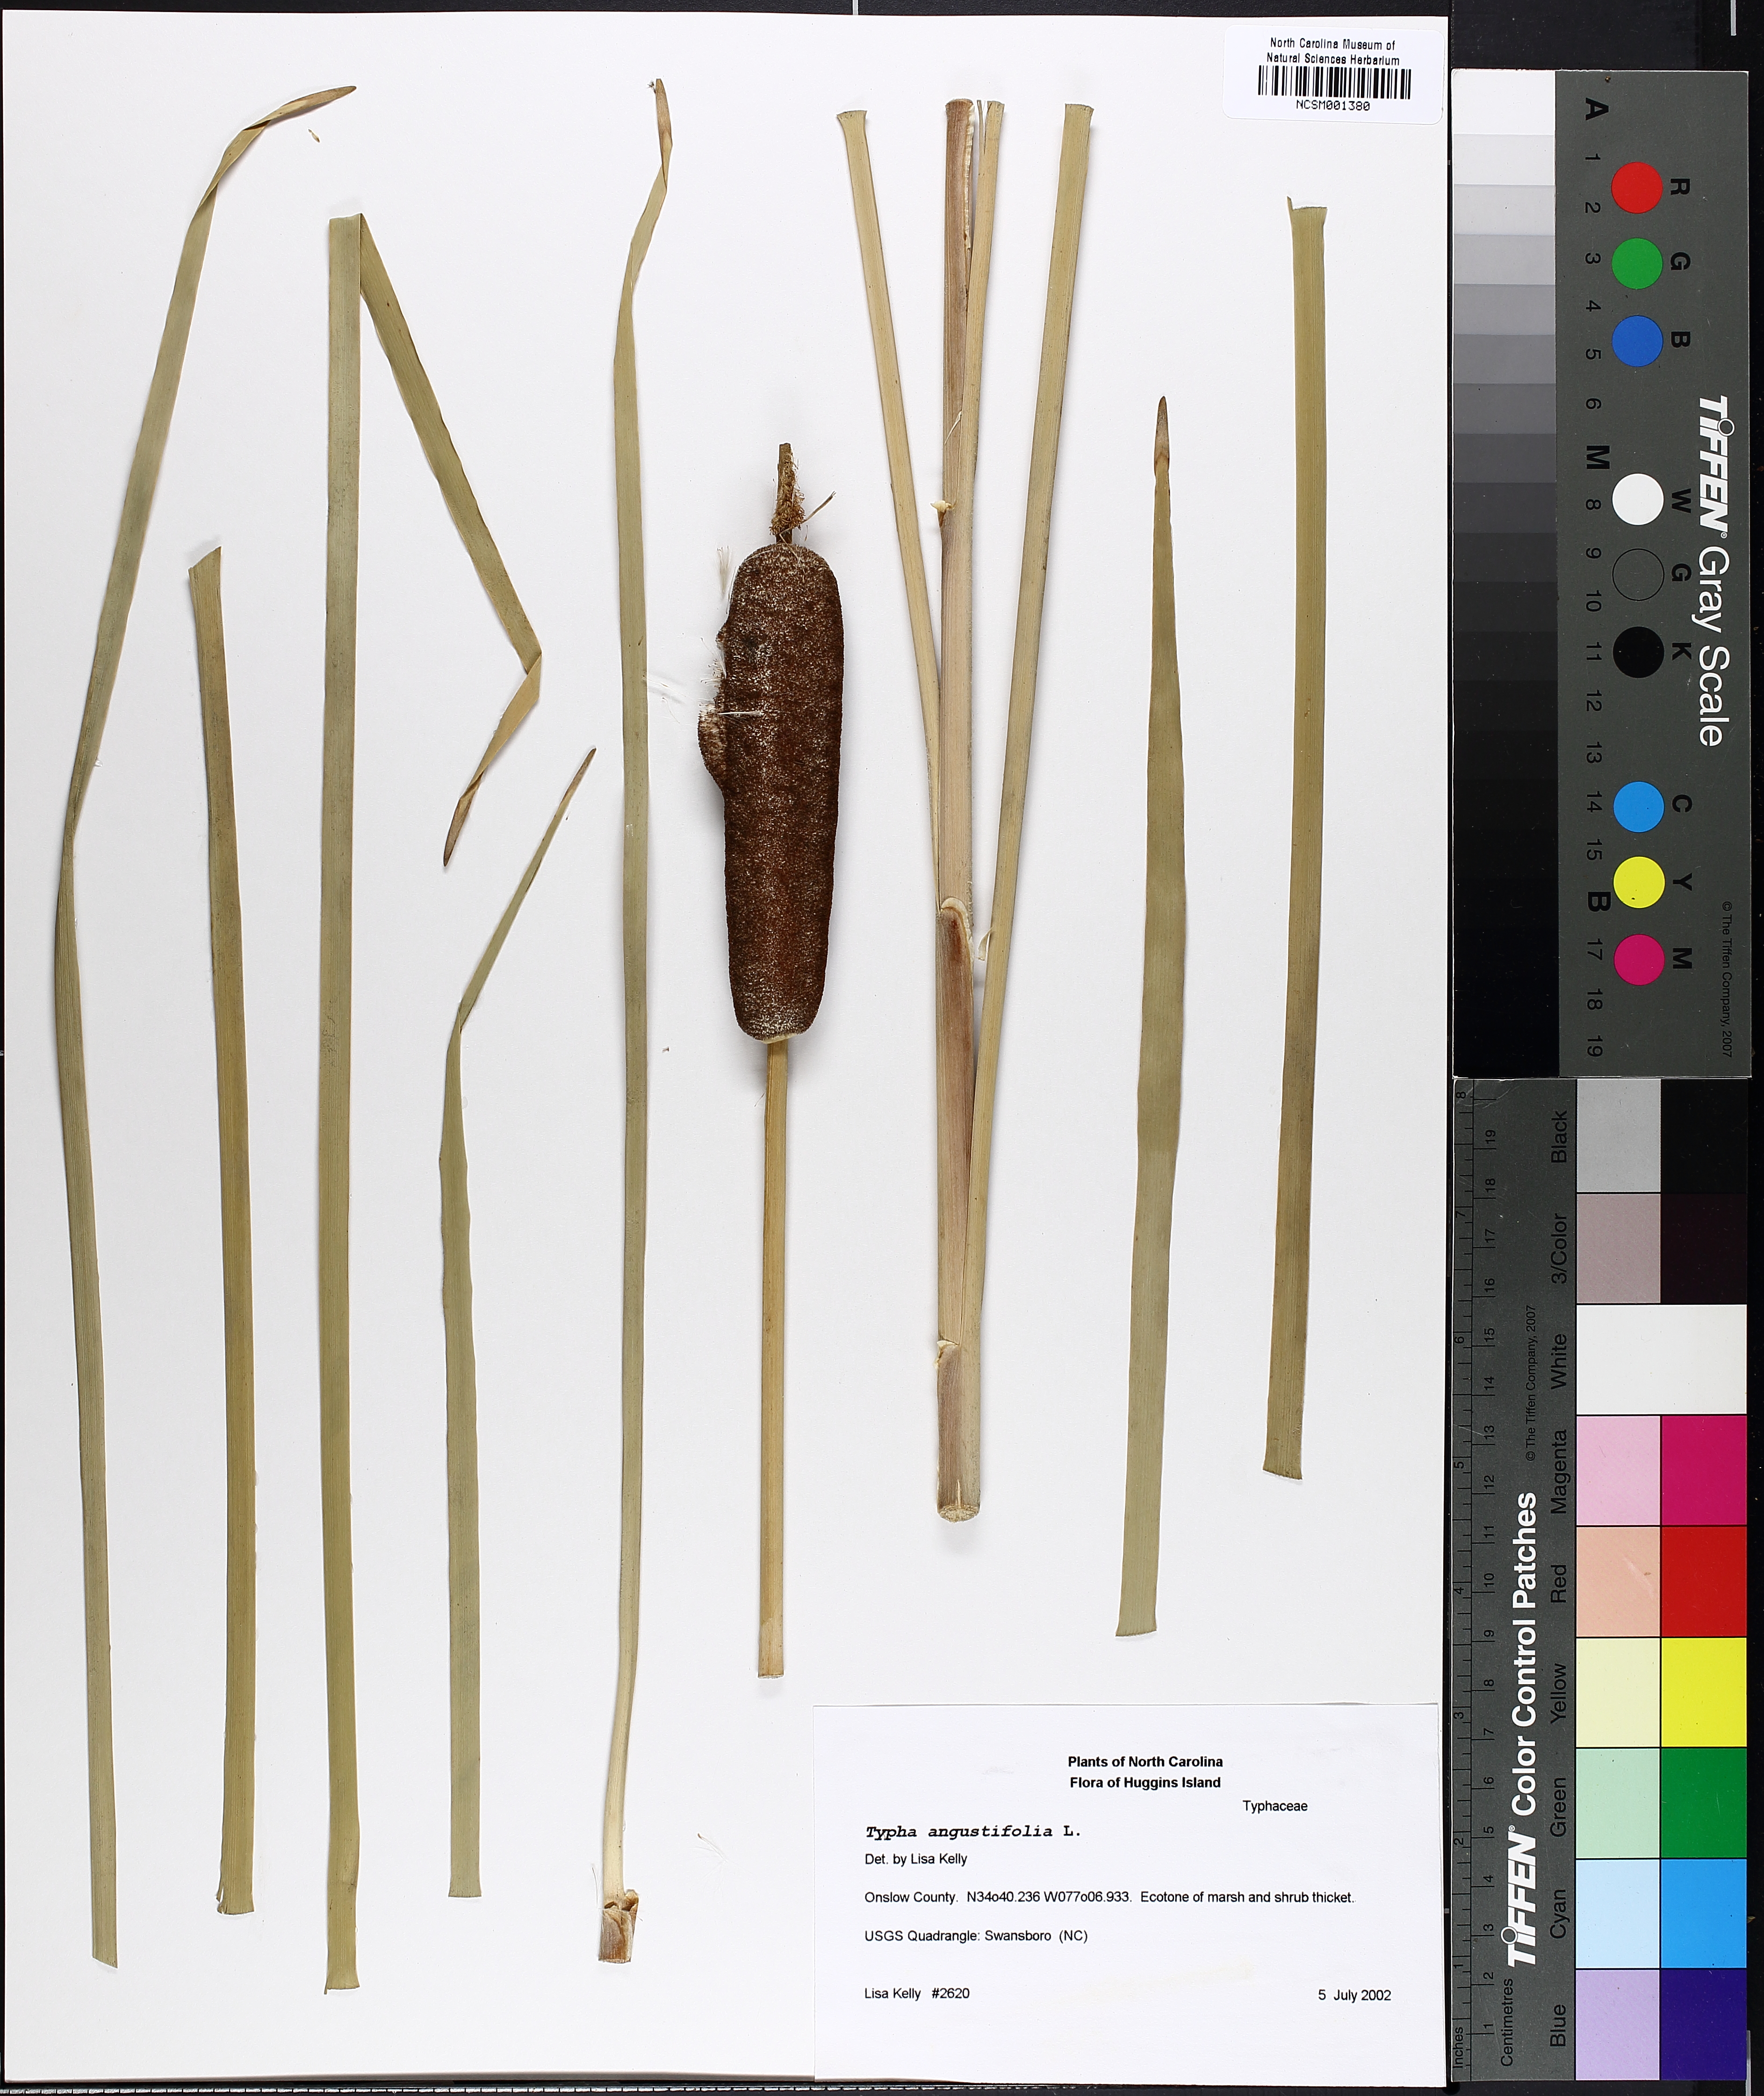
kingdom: Plantae
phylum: Tracheophyta
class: Liliopsida
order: Poales
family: Typhaceae
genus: Typha
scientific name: Typha angustifolia
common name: Lesser bulrush
